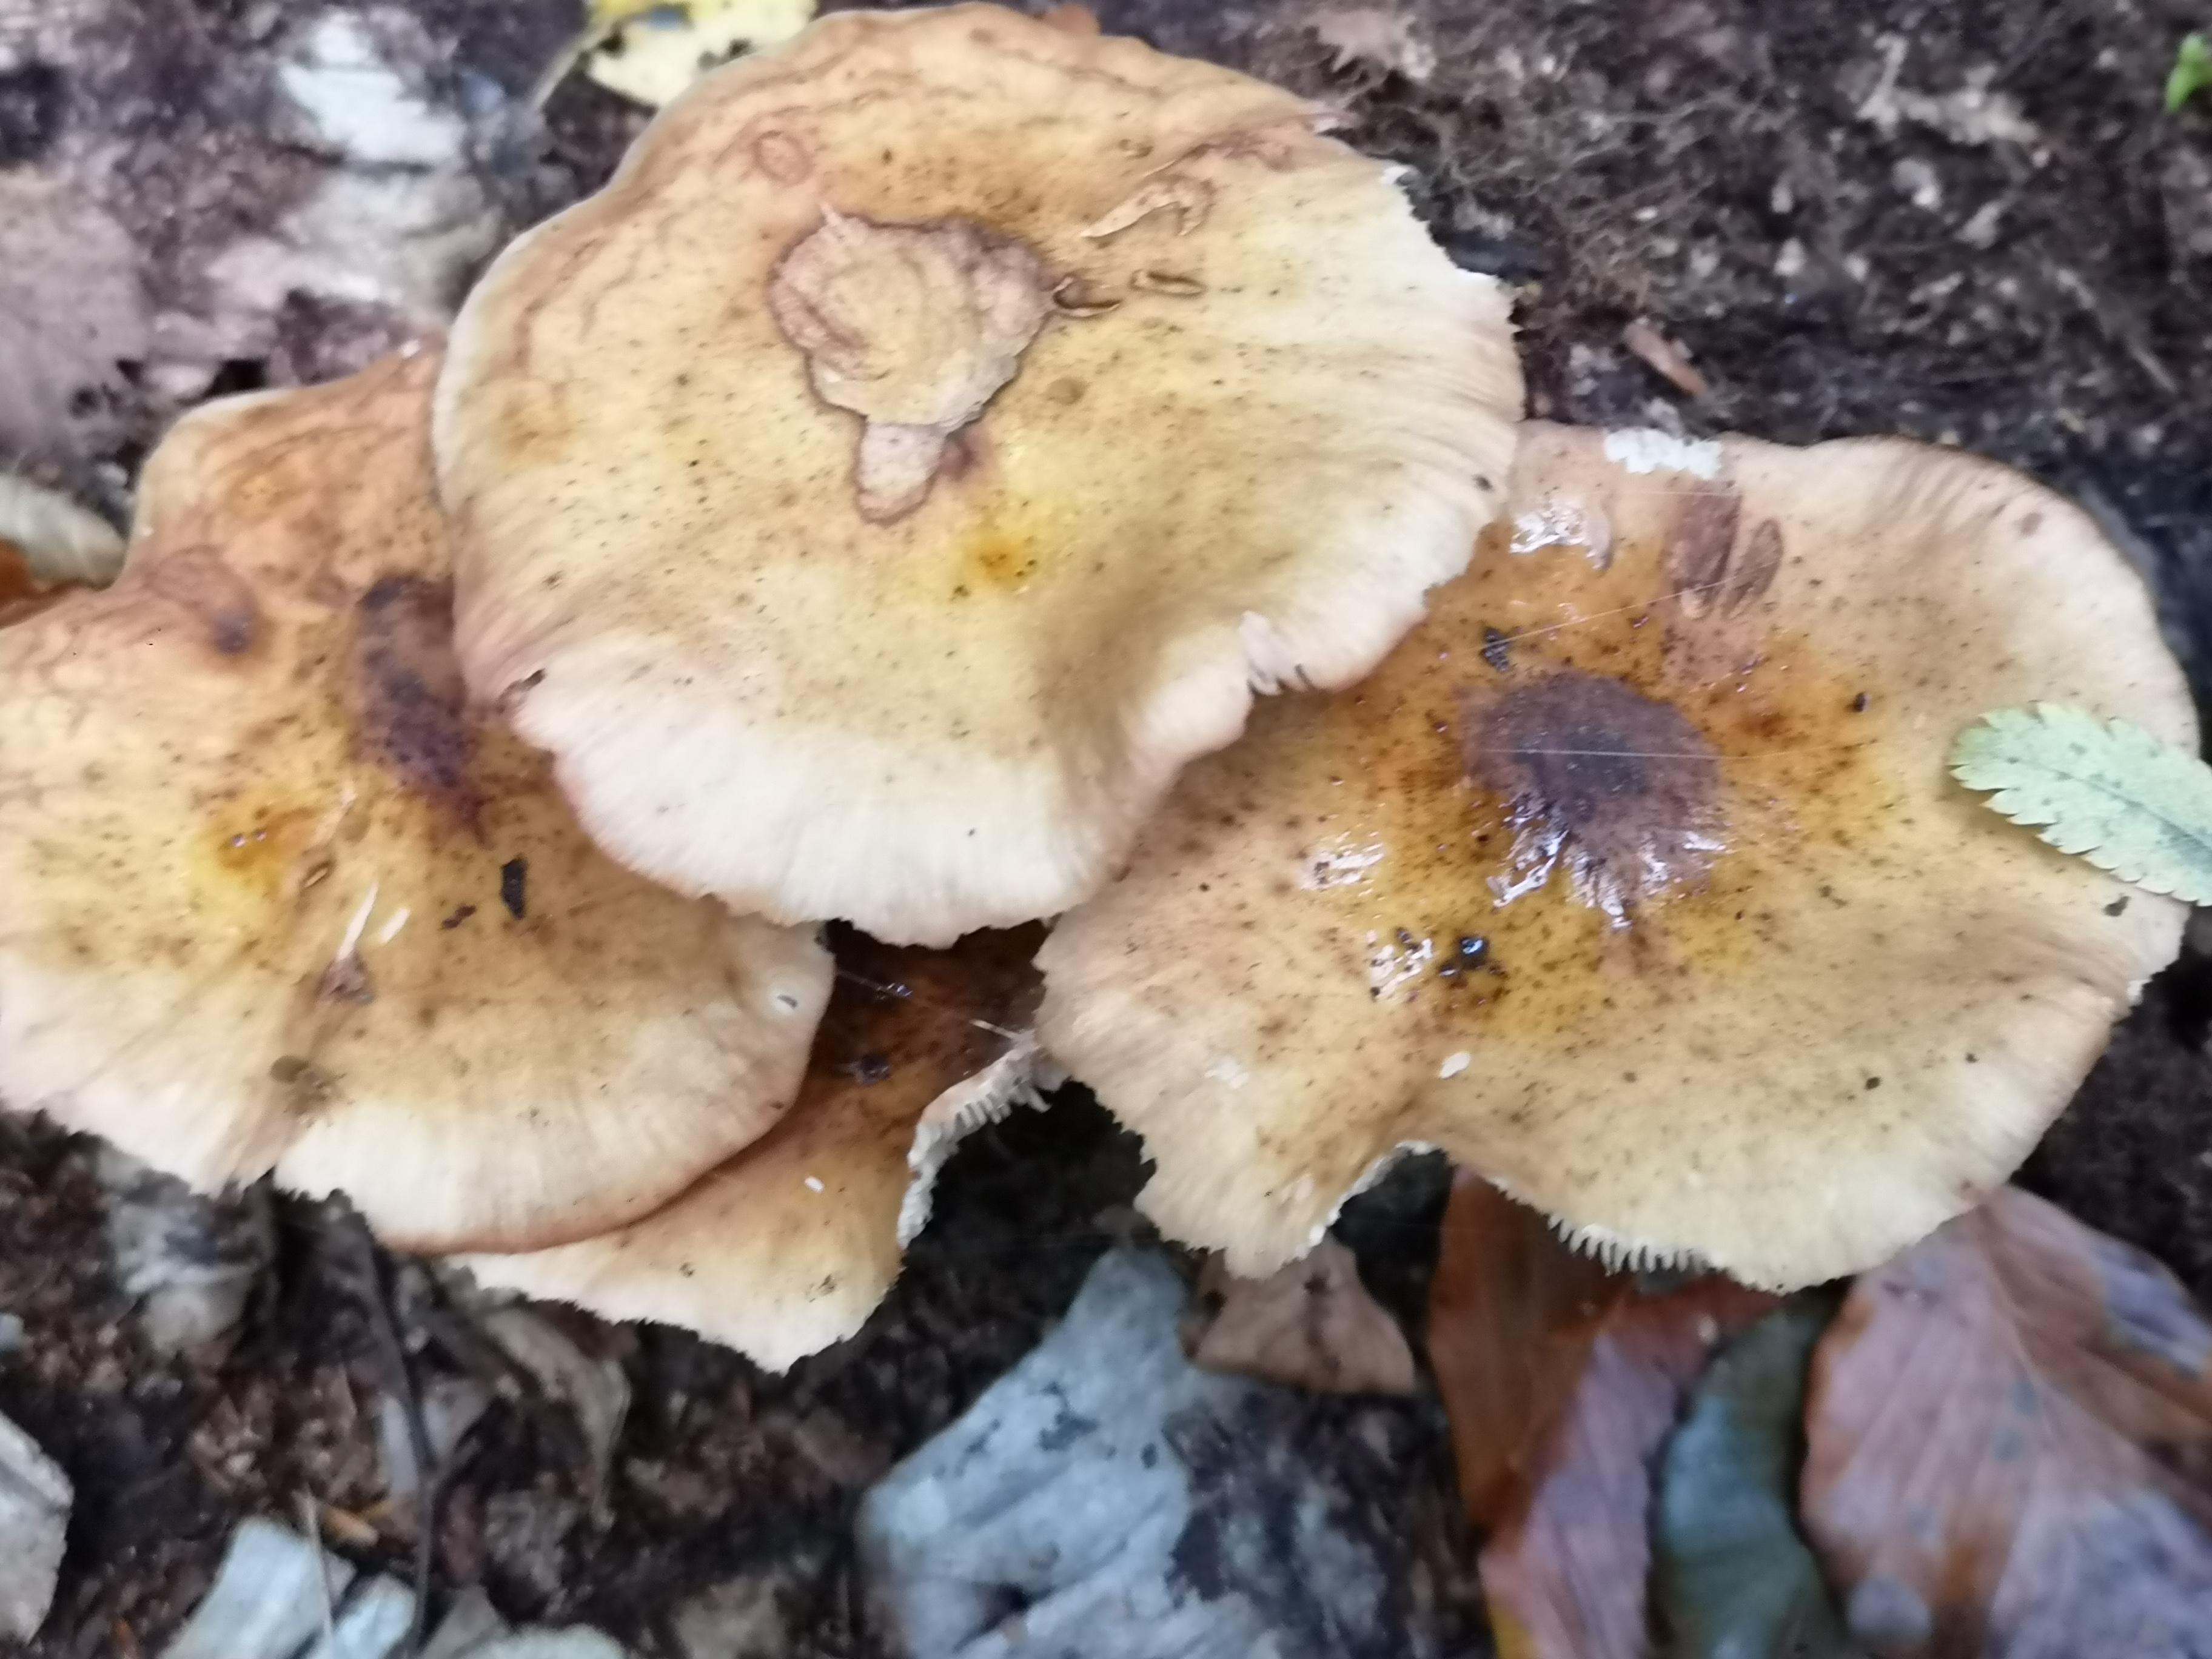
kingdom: Fungi
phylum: Basidiomycota
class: Agaricomycetes
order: Agaricales
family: Physalacriaceae
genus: Armillaria
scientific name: Armillaria
